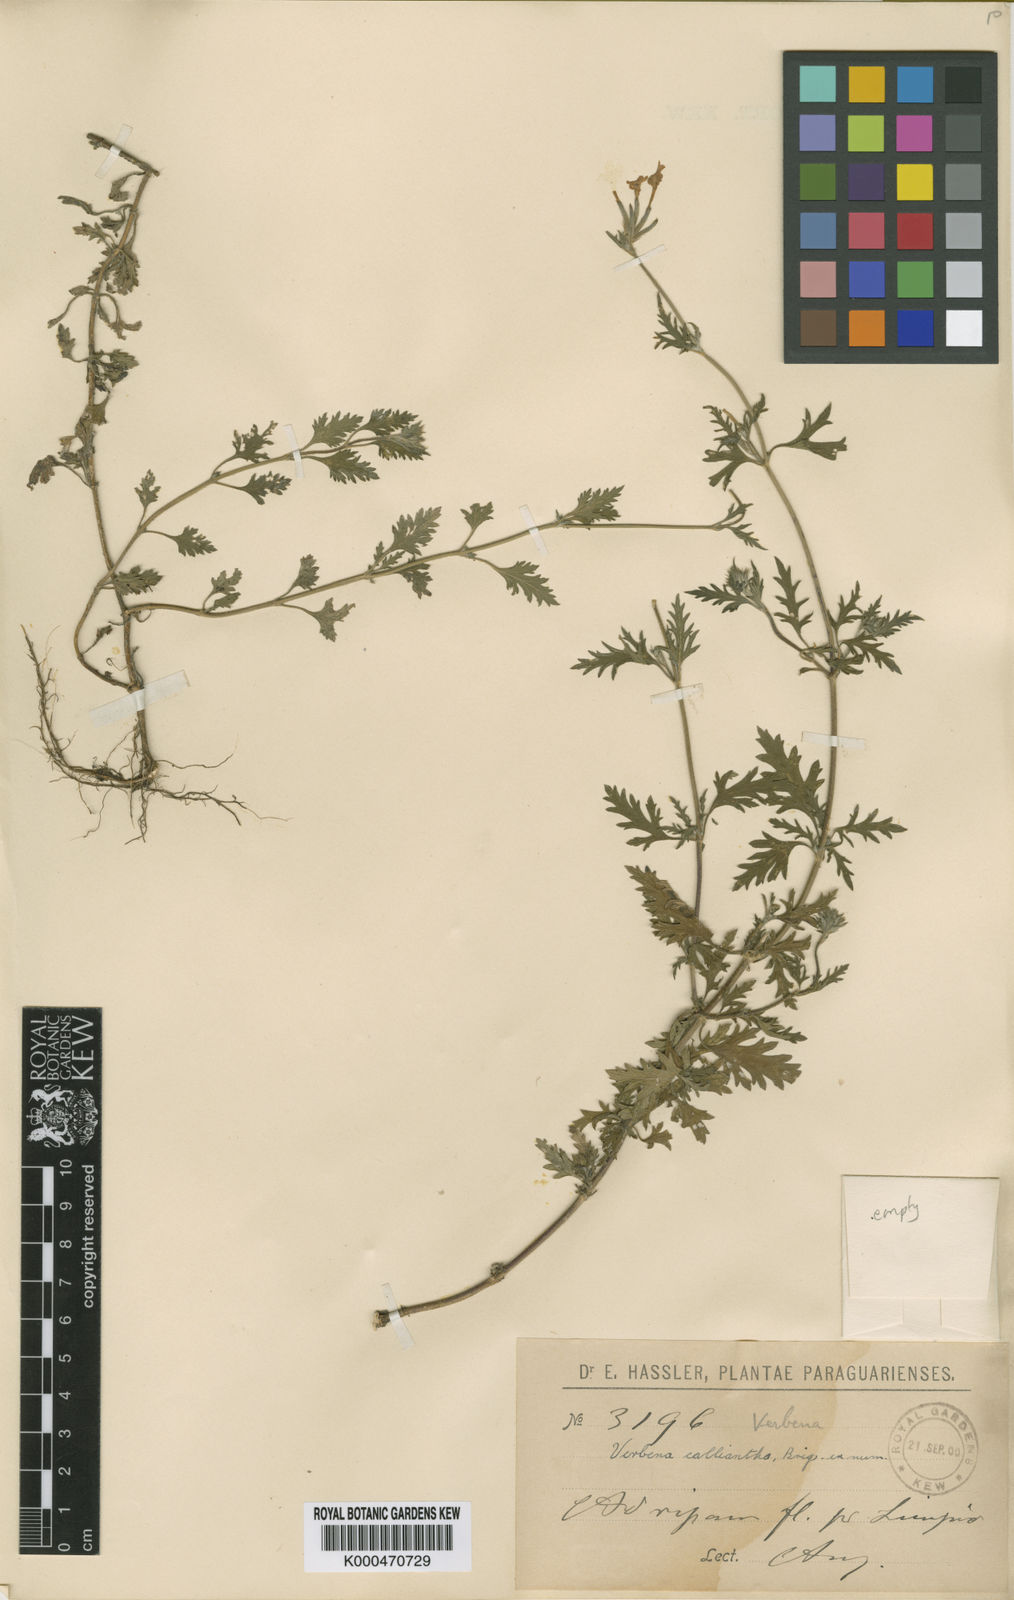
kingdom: Plantae
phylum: Tracheophyta
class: Magnoliopsida
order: Lamiales
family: Verbenaceae
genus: Verbena
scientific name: Verbena
